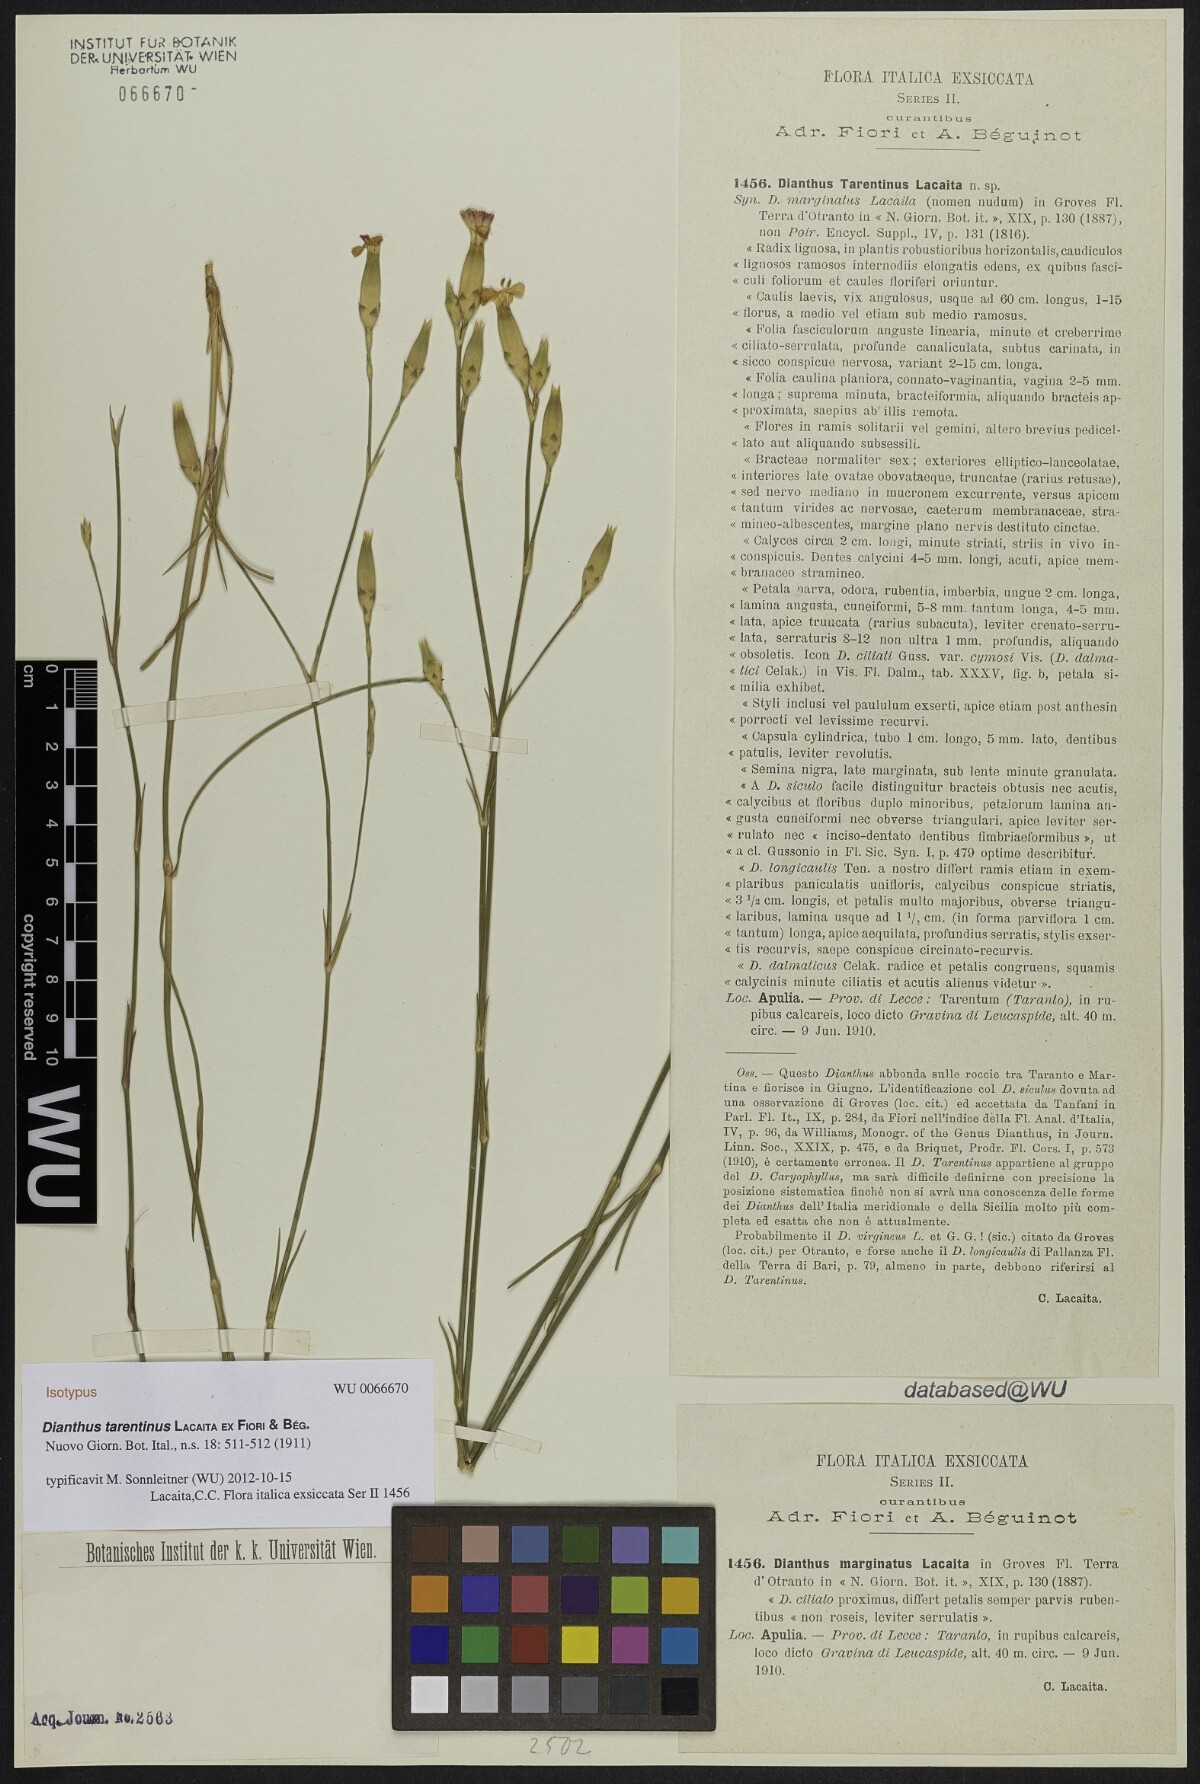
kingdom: Plantae
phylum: Tracheophyta
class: Magnoliopsida
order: Caryophyllales
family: Caryophyllaceae
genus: Dianthus
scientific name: Dianthus tarentinus
